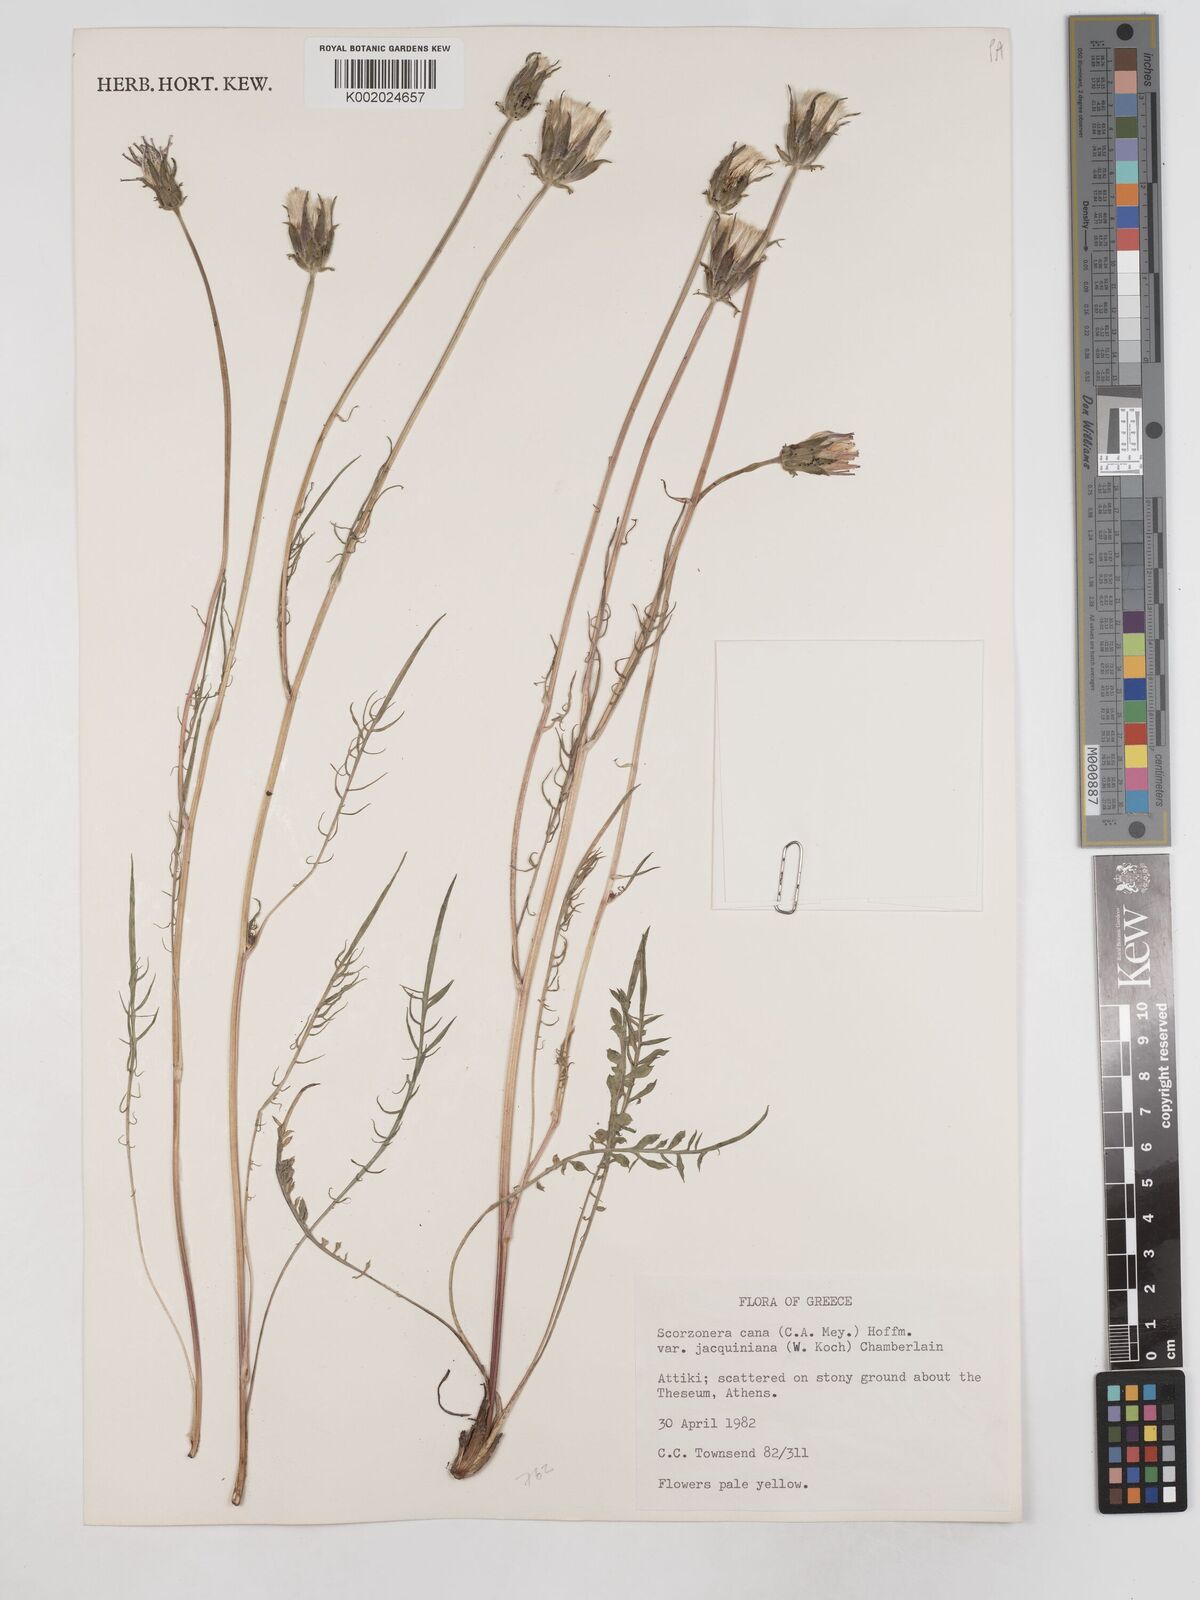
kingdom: Plantae
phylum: Tracheophyta
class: Magnoliopsida
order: Asterales
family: Asteraceae
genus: Scorzonera
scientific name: Scorzonera cana
